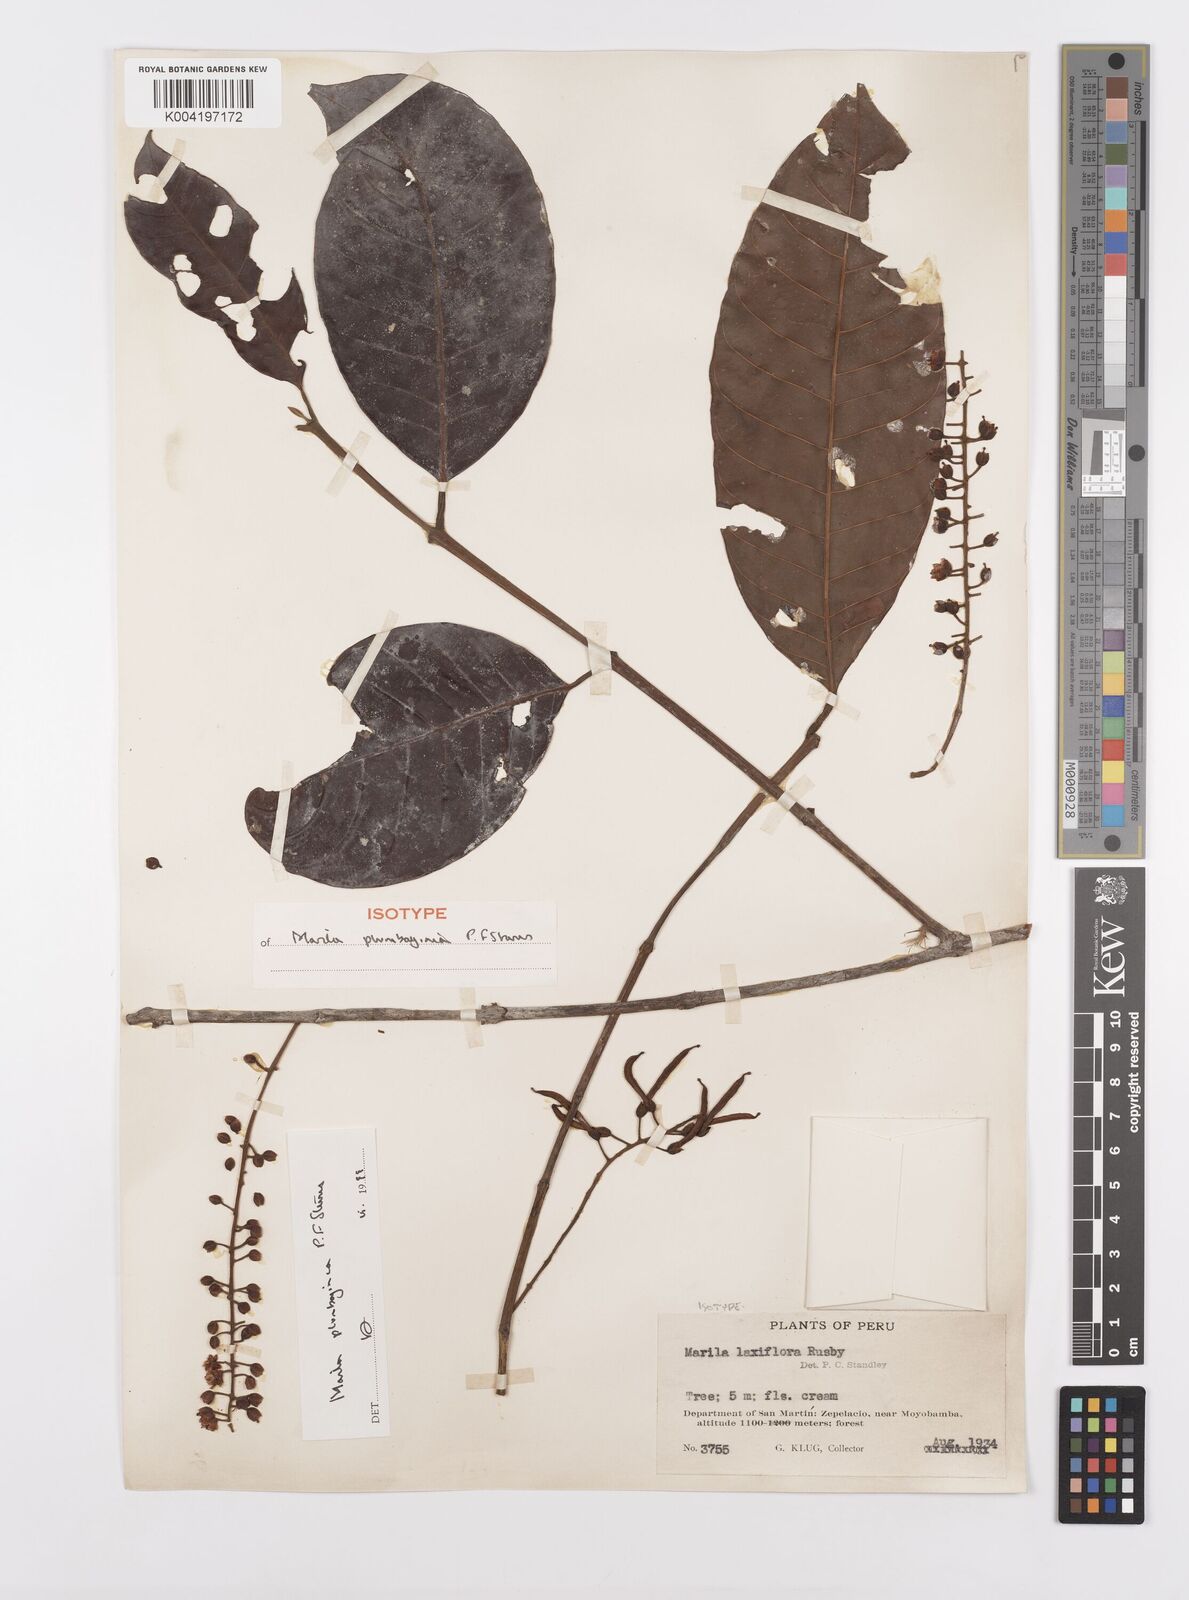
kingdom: Plantae
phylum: Tracheophyta
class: Magnoliopsida
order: Malpighiales
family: Calophyllaceae
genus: Marila
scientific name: Marila
